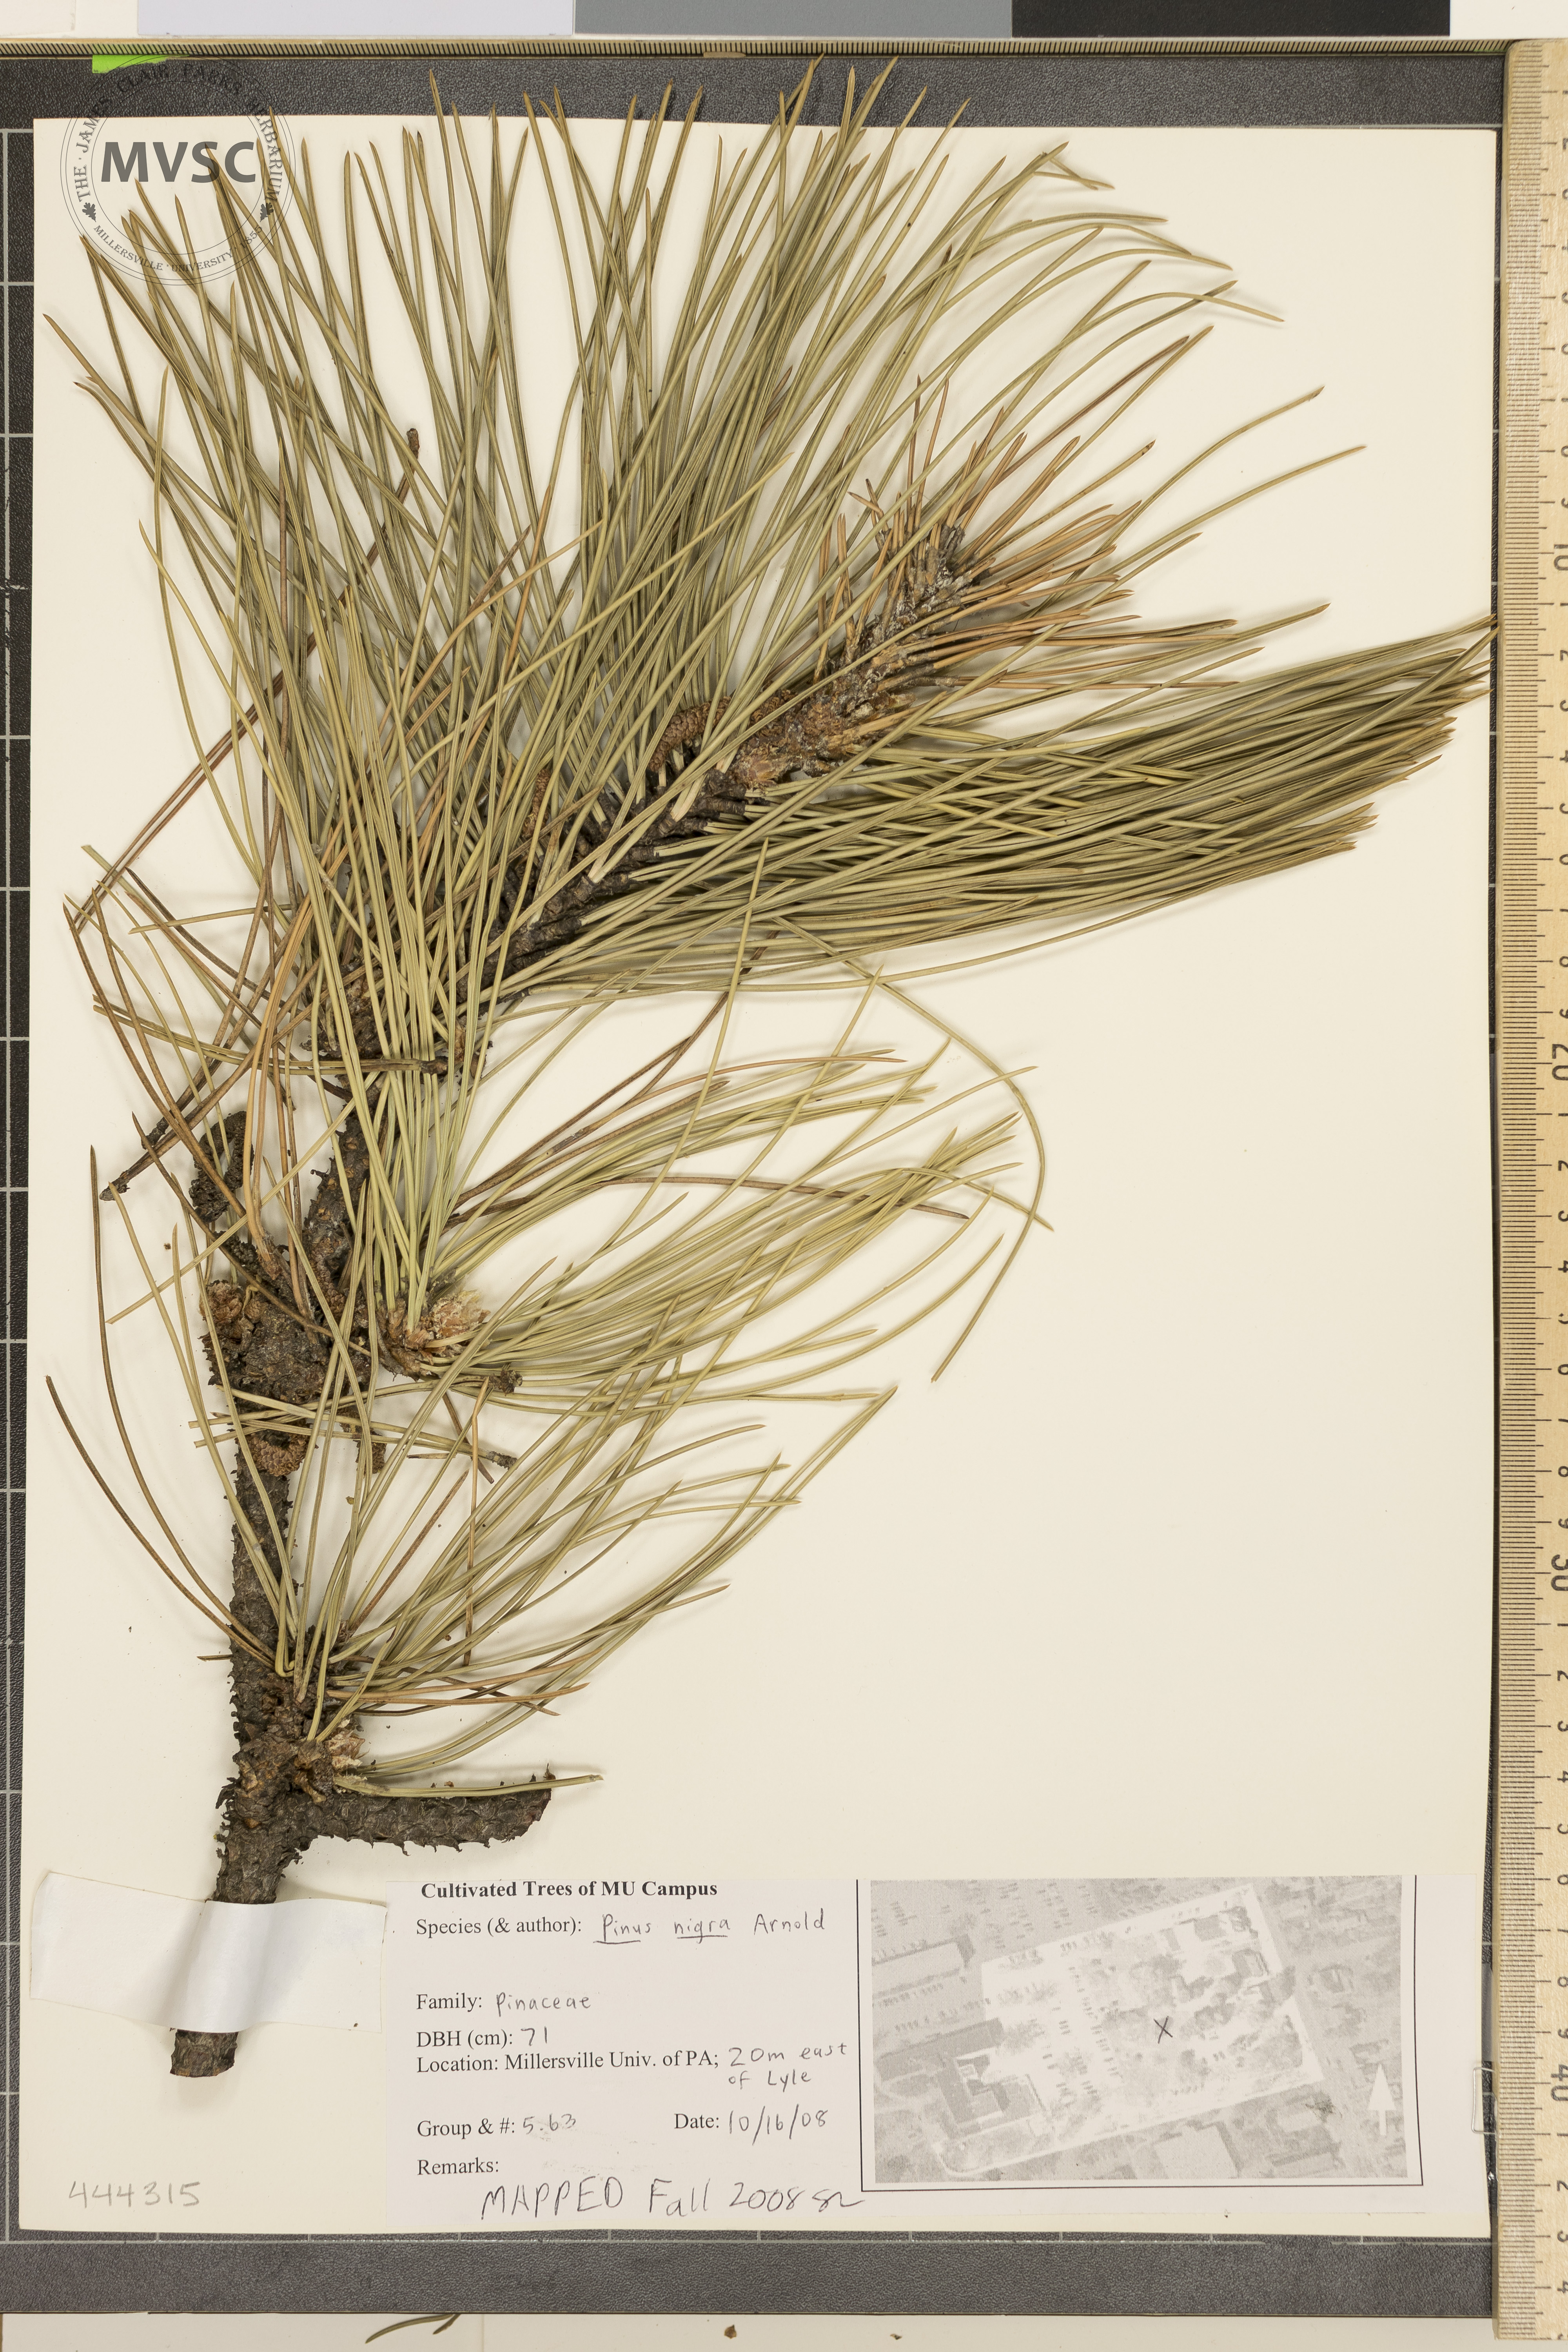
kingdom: Plantae
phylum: Tracheophyta
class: Pinopsida
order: Pinales
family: Pinaceae
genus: Pinus
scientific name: Pinus nigra
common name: Austrian pine
